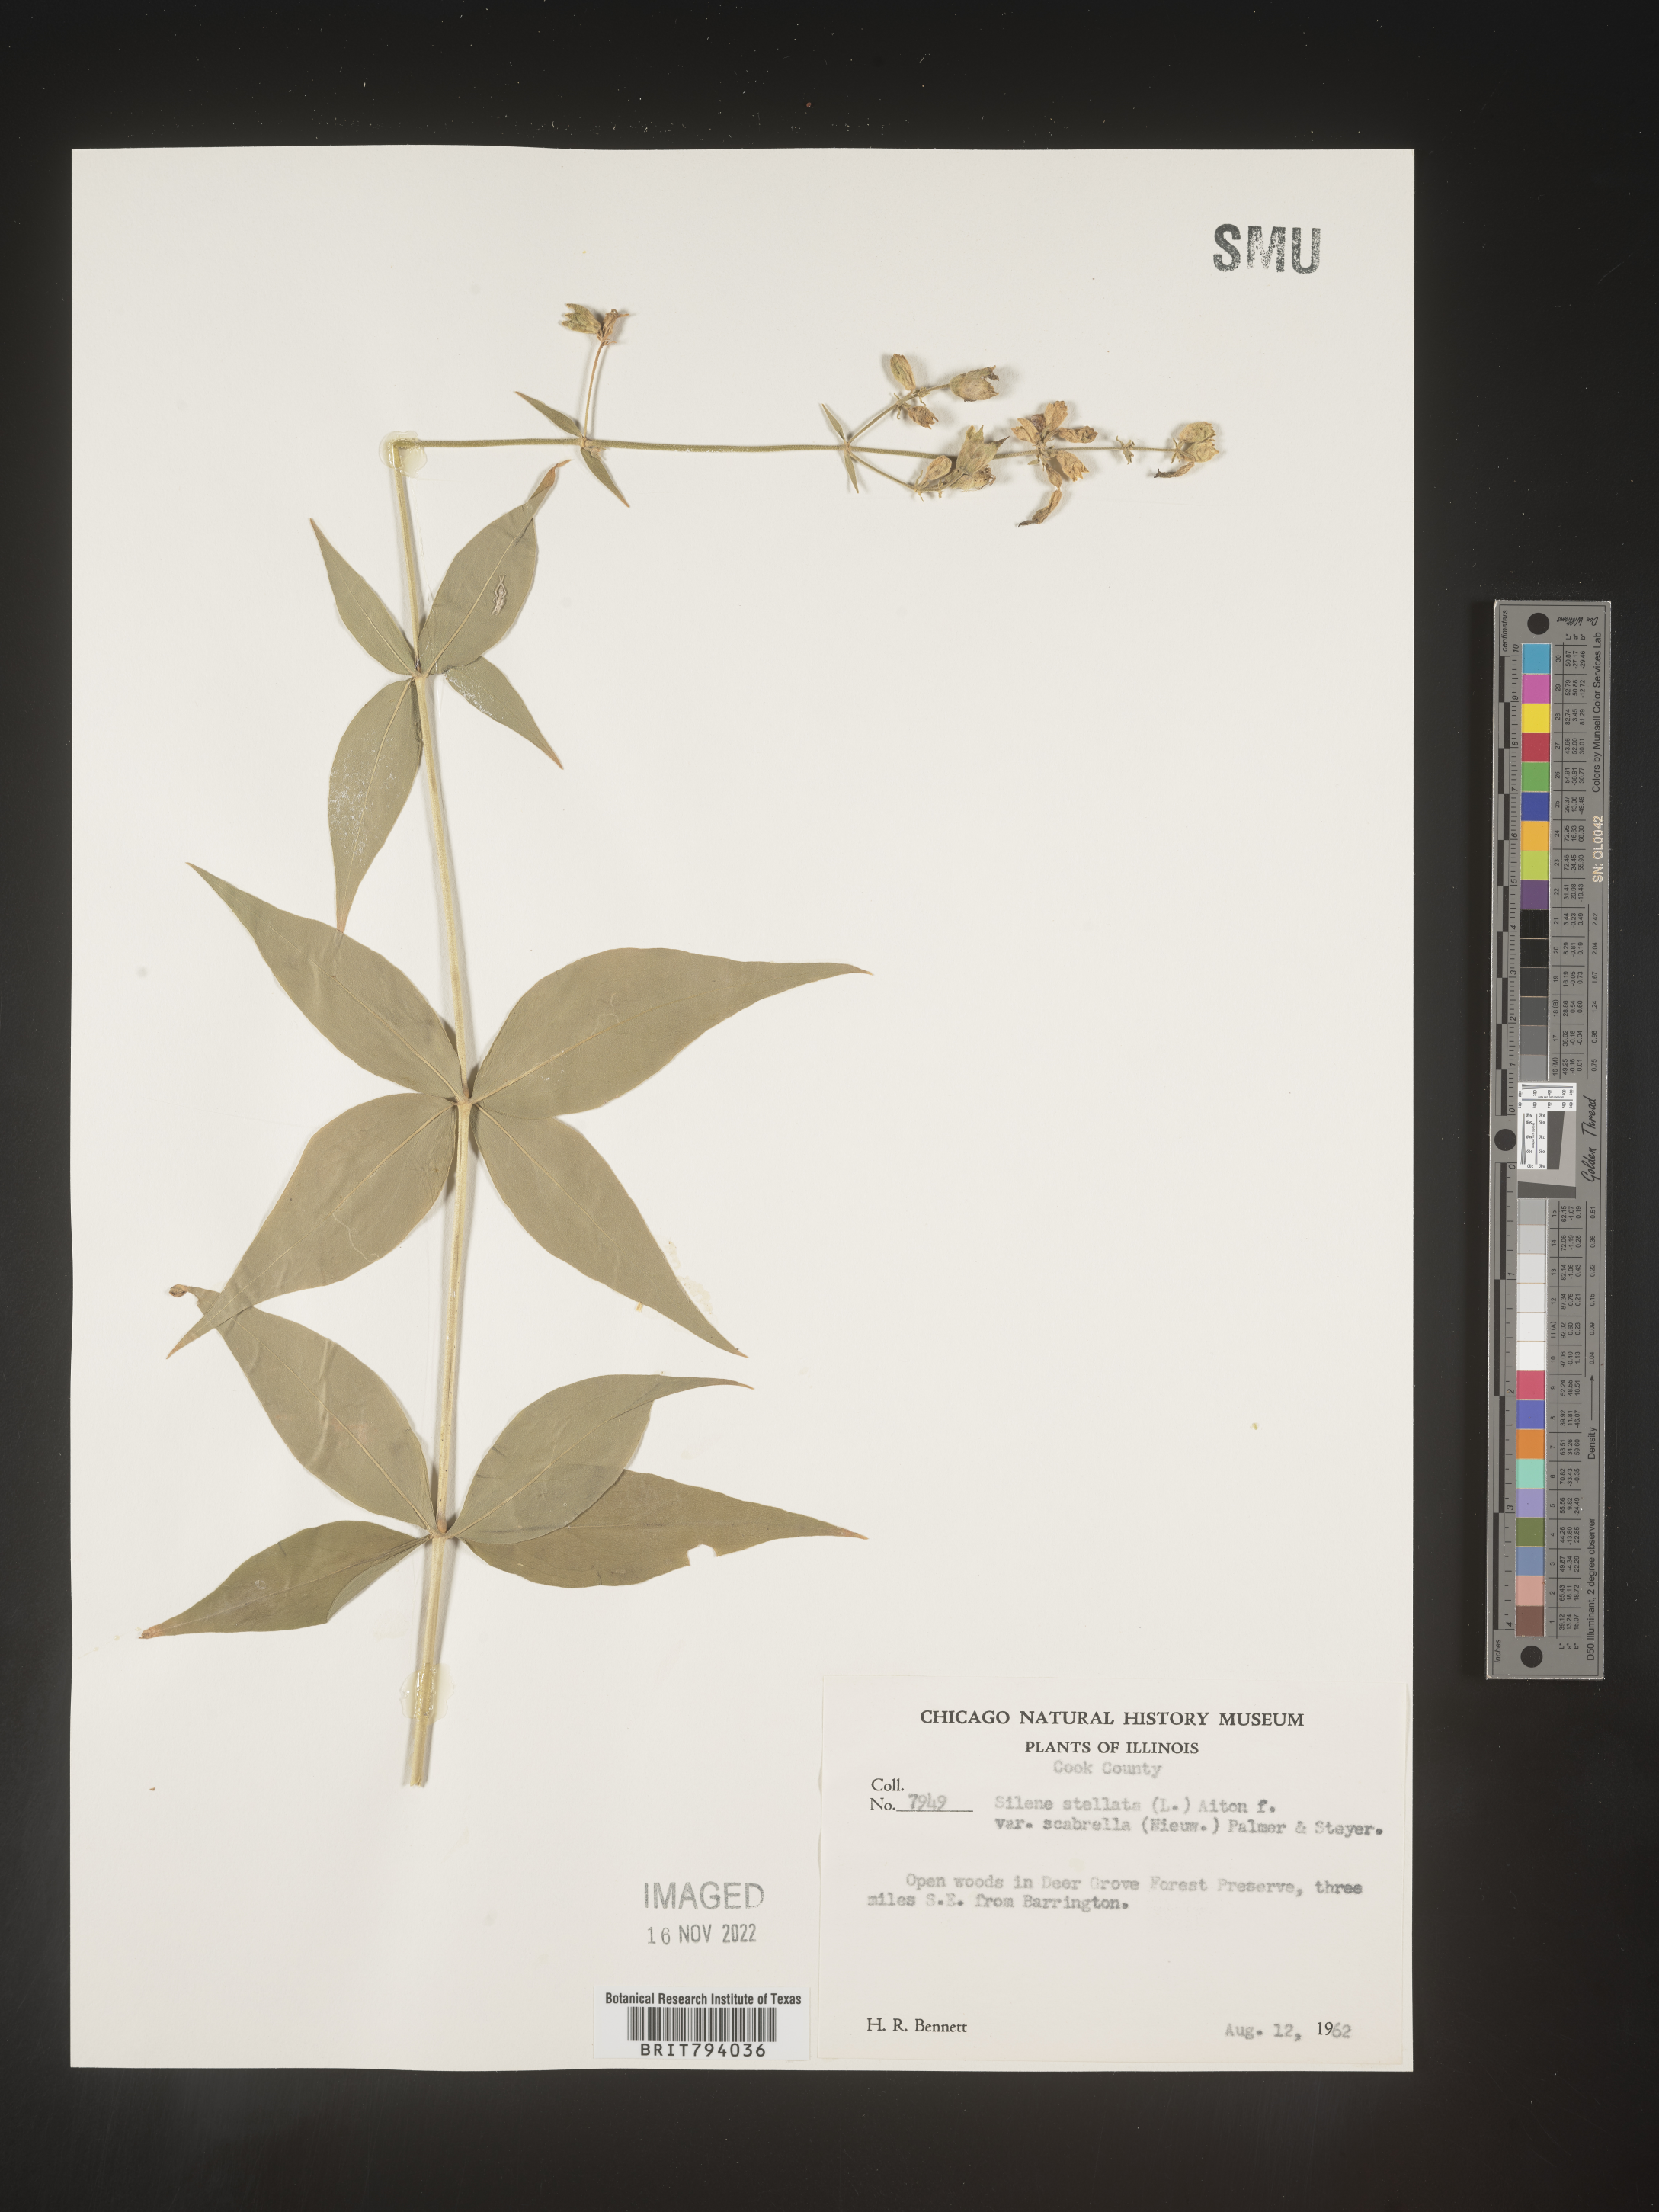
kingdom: Plantae
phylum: Tracheophyta
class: Magnoliopsida
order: Caryophyllales
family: Caryophyllaceae
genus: Silene
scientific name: Silene stellata
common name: Starry campion
